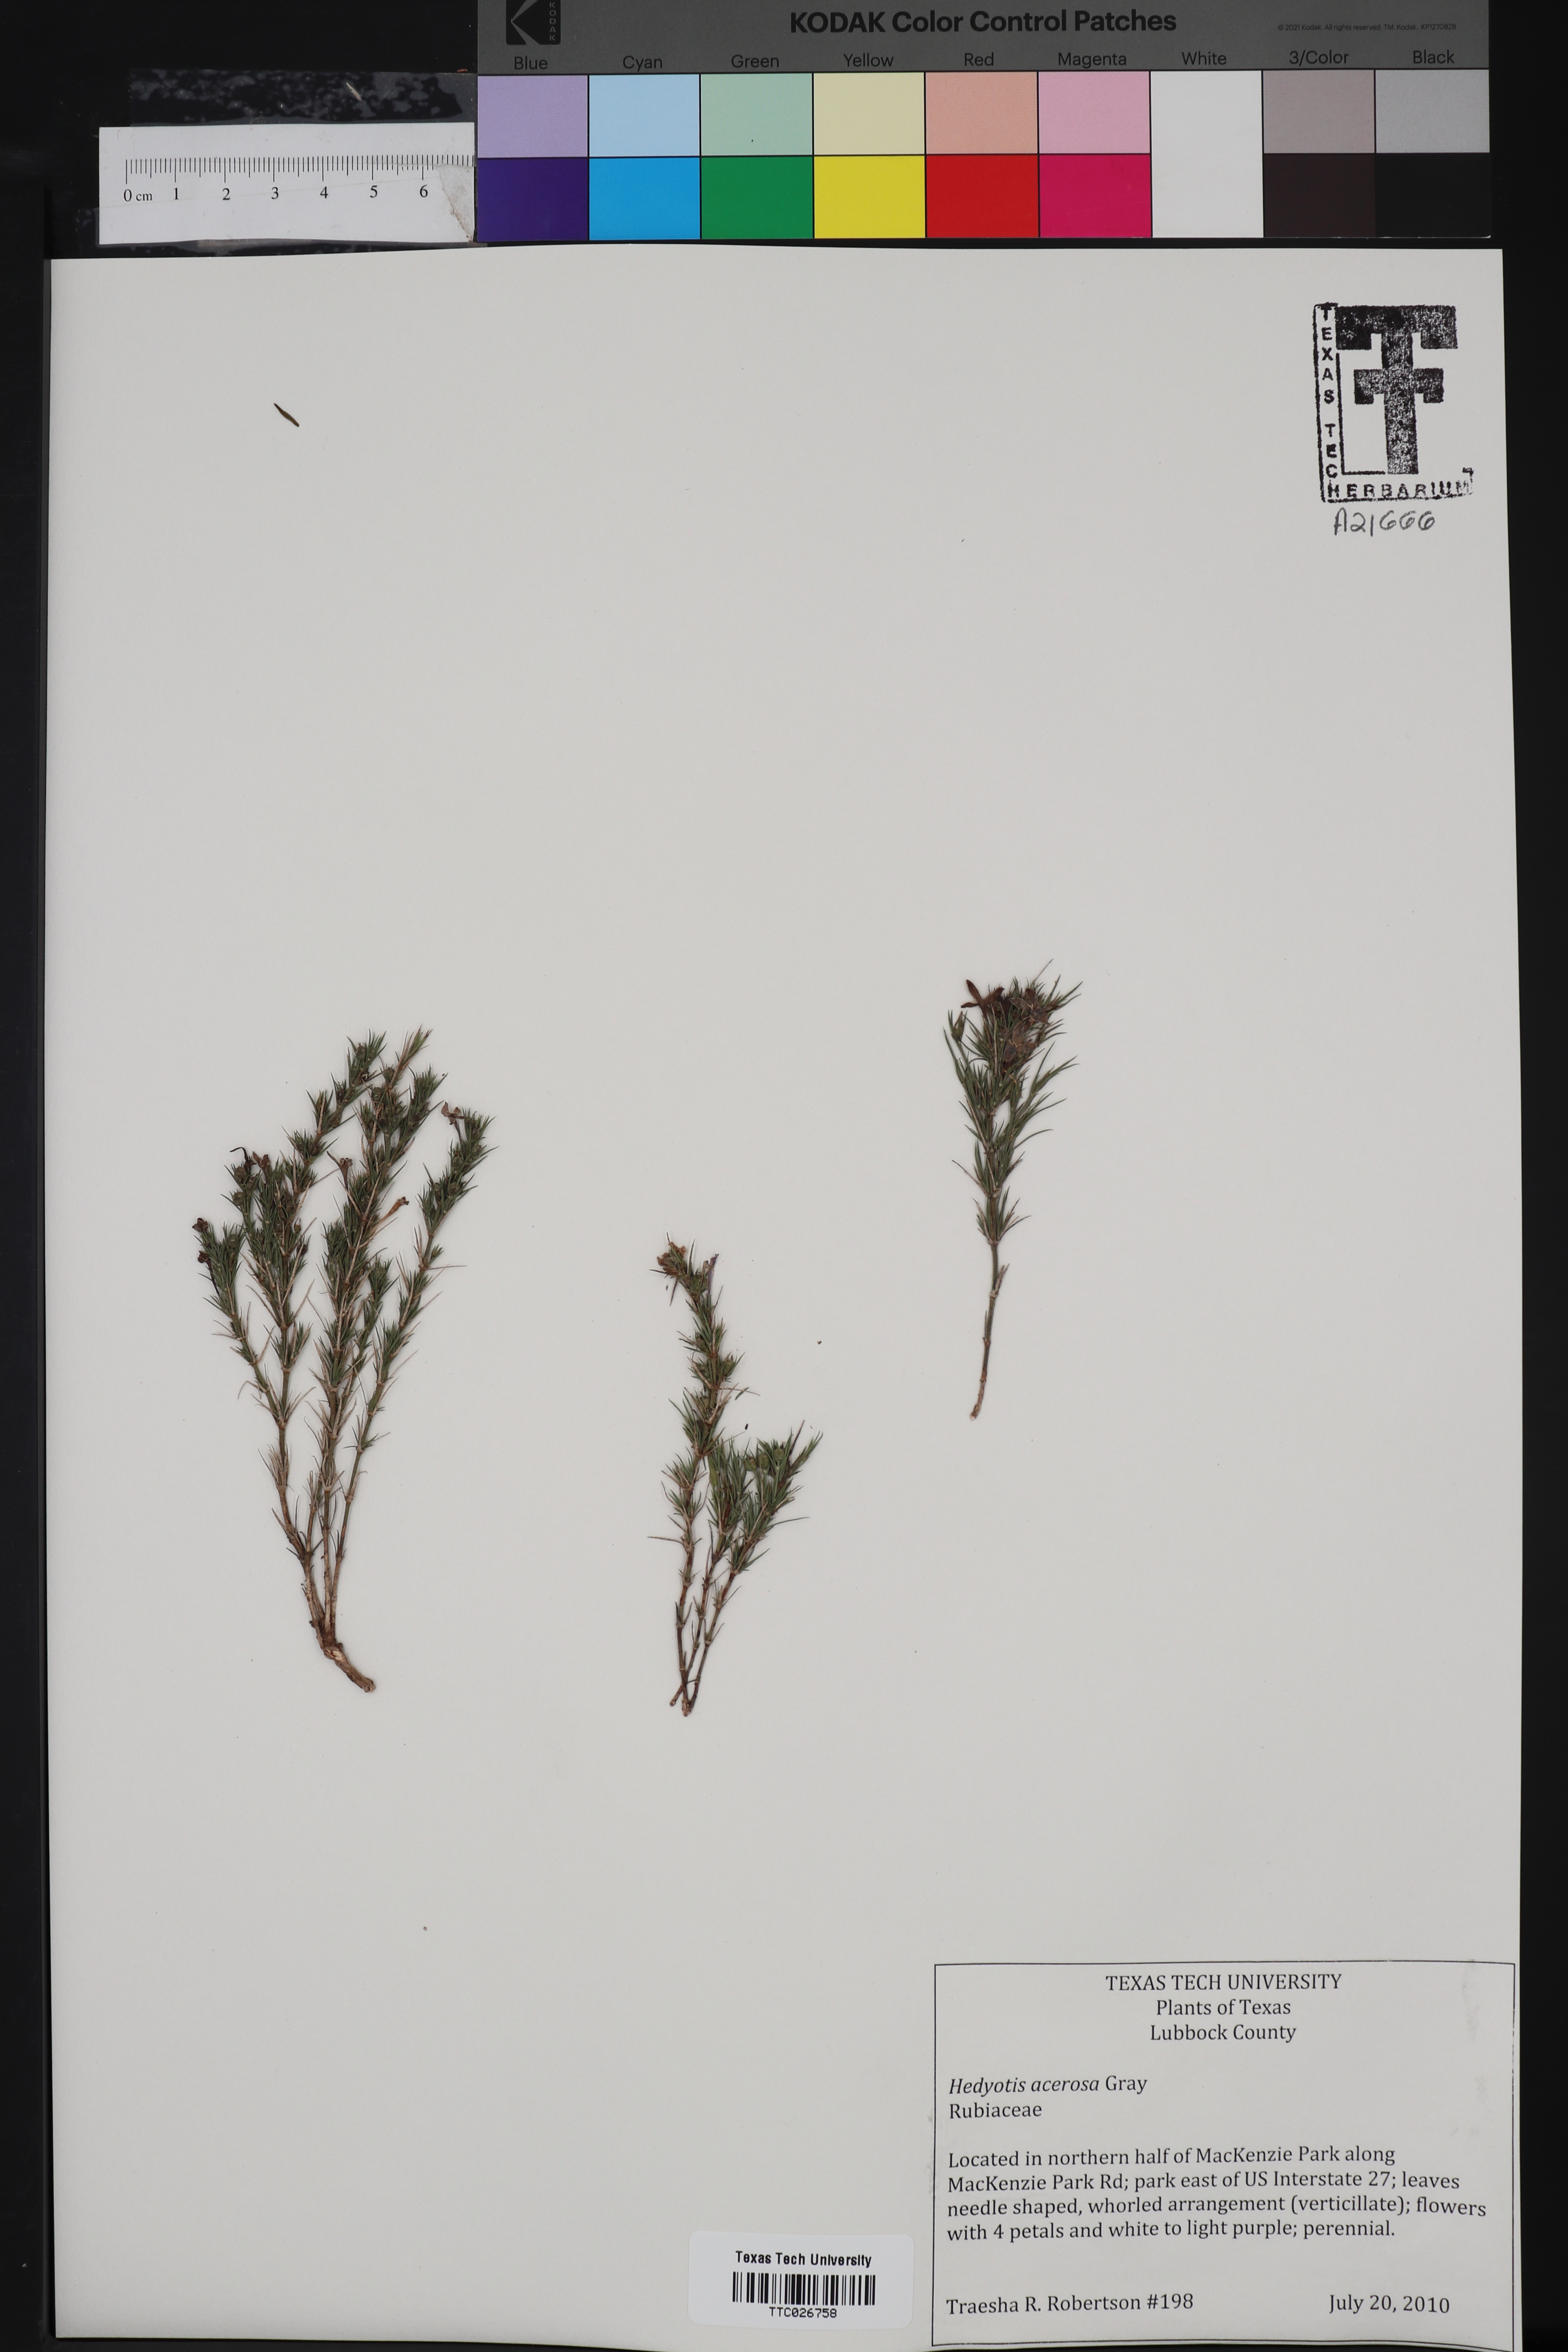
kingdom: Plantae
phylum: Tracheophyta
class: Magnoliopsida
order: Gentianales
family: Rubiaceae
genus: Houstonia
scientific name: Houstonia acerosa
